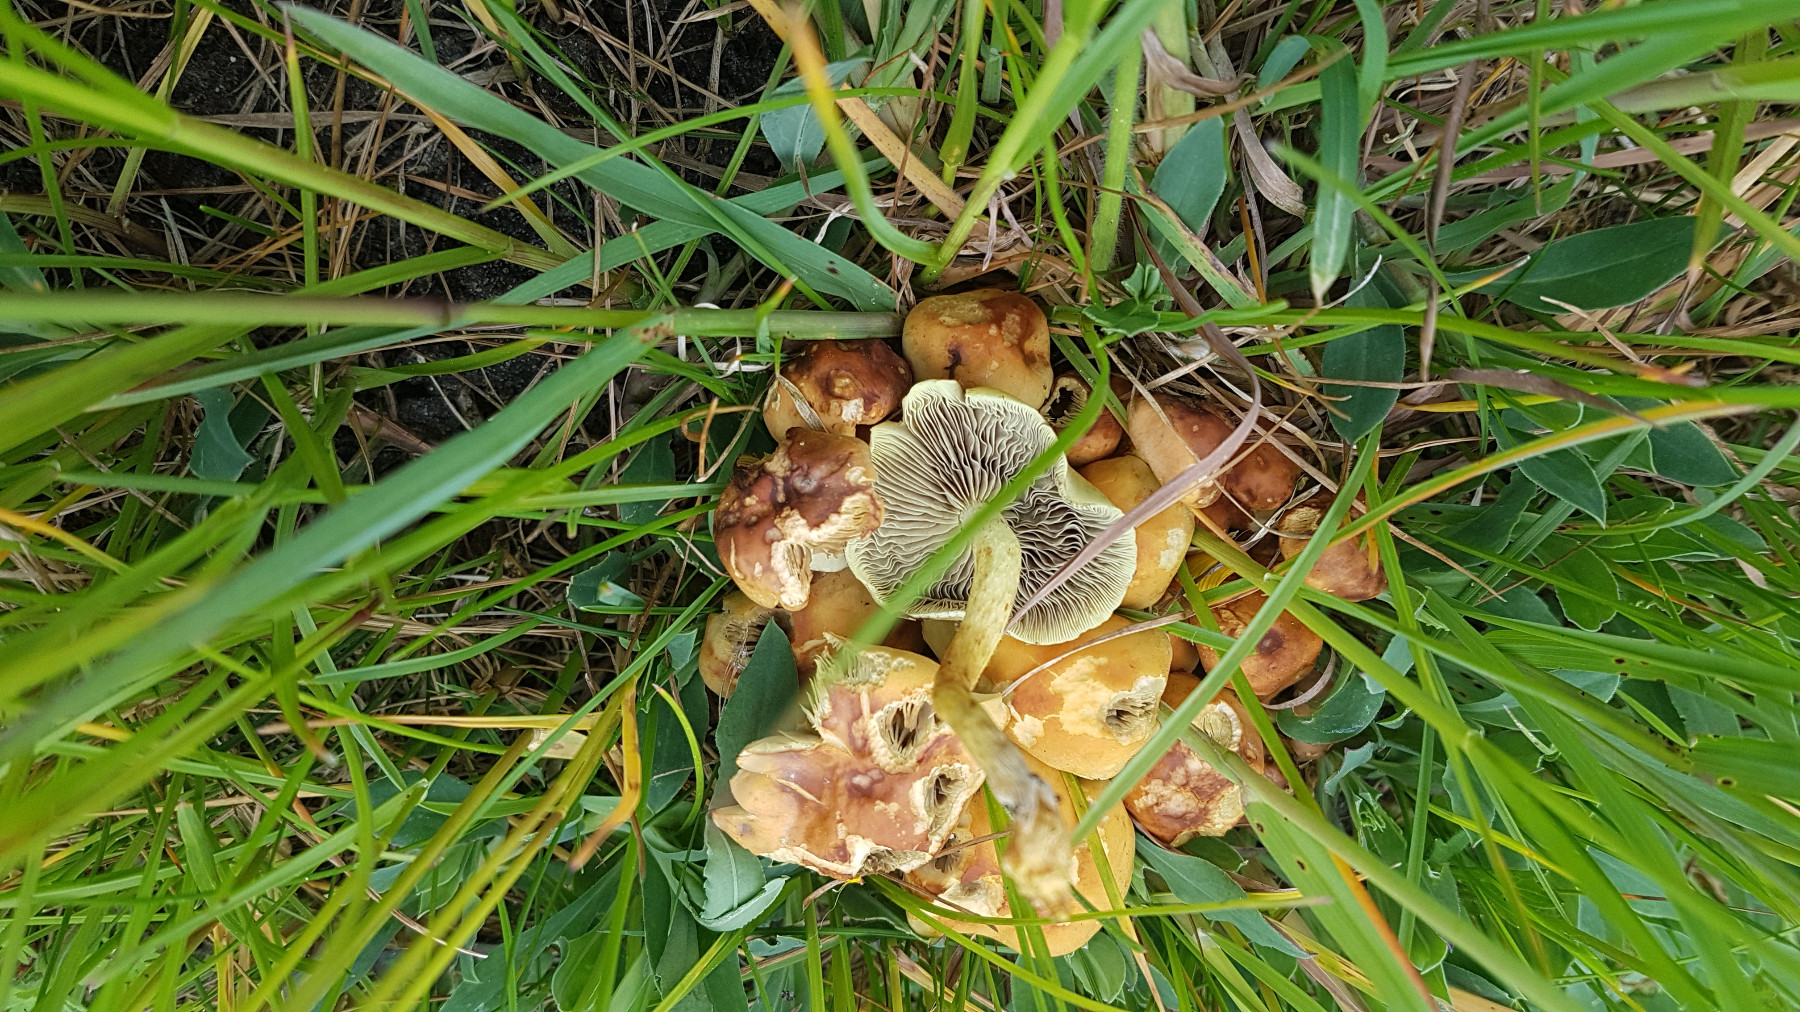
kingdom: Fungi
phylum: Basidiomycota
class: Agaricomycetes
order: Agaricales
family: Strophariaceae
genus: Hypholoma
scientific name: Hypholoma fasciculare
